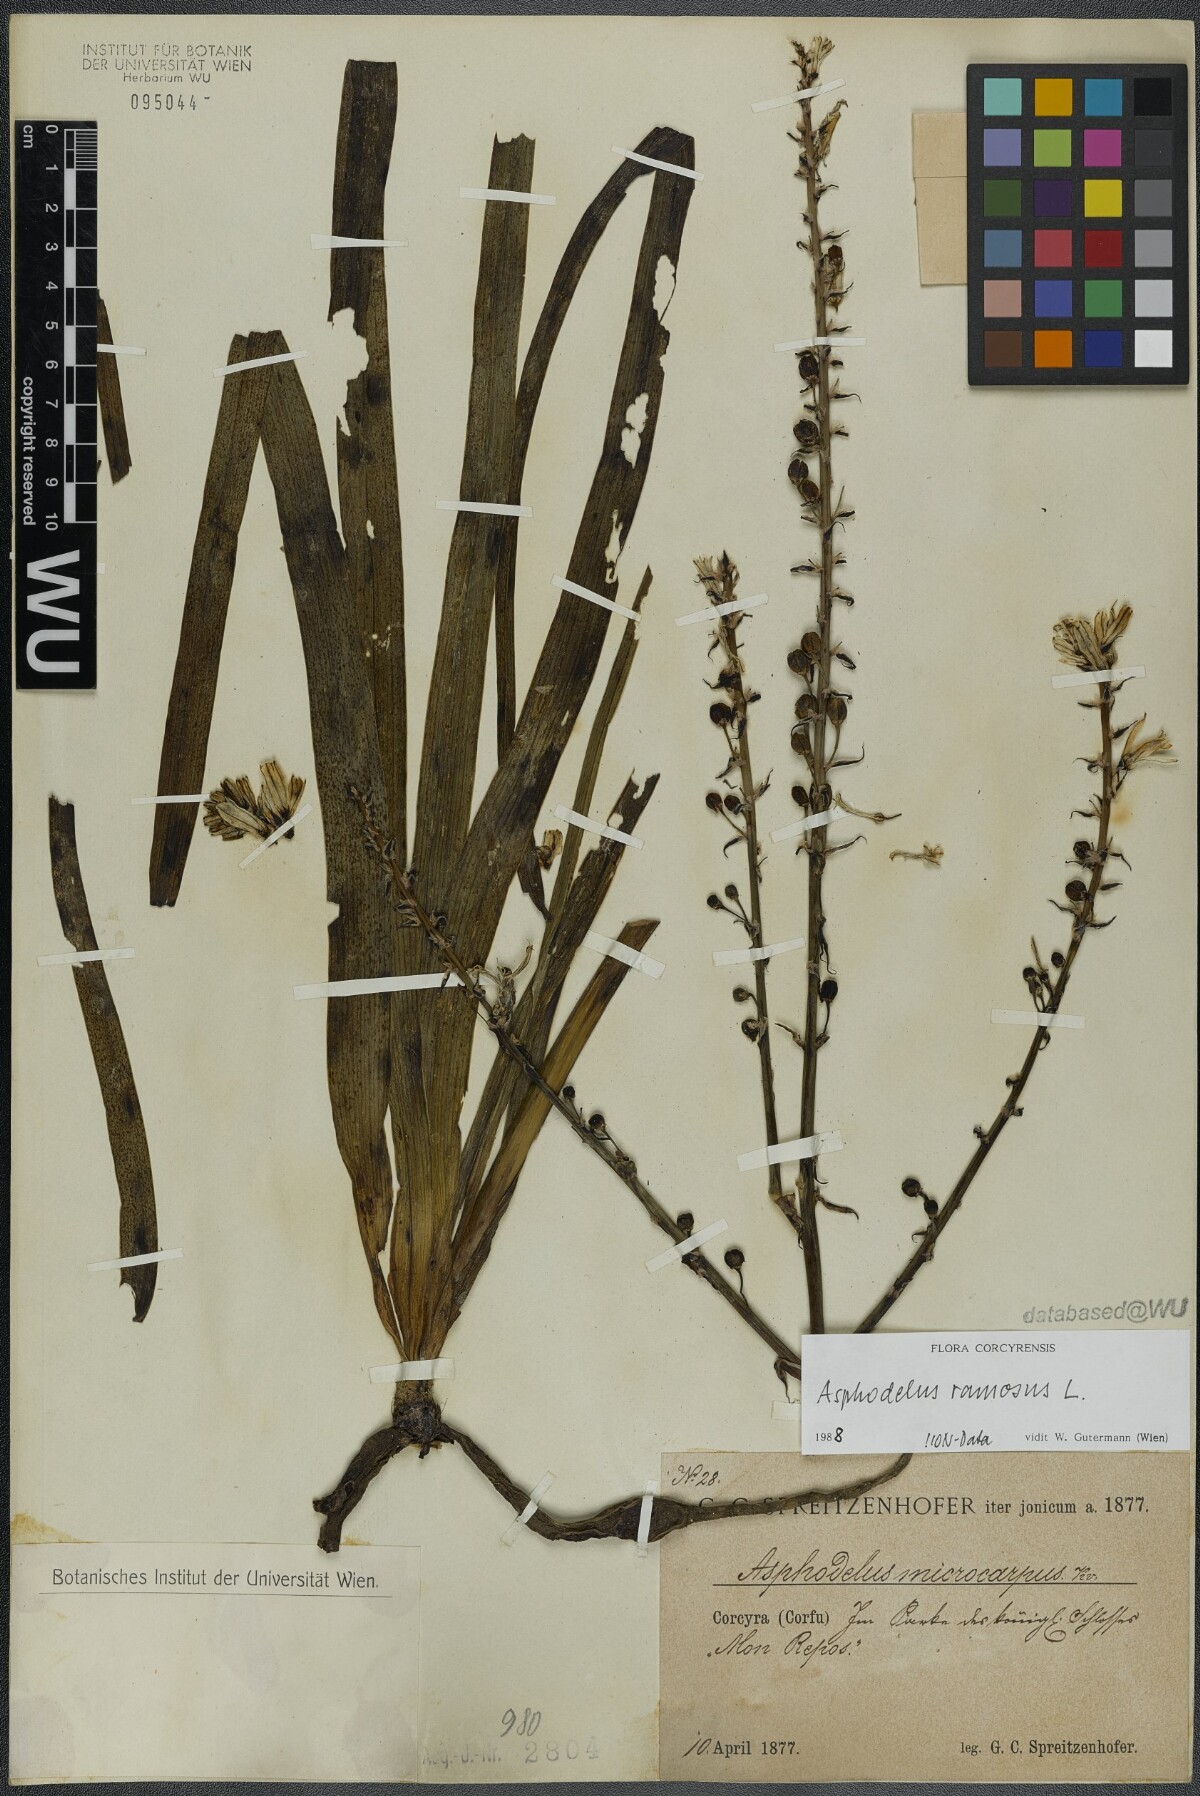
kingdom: Plantae
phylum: Tracheophyta
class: Liliopsida
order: Asparagales
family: Asphodelaceae
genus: Asphodelus
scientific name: Asphodelus ramosus
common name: Silverrod
